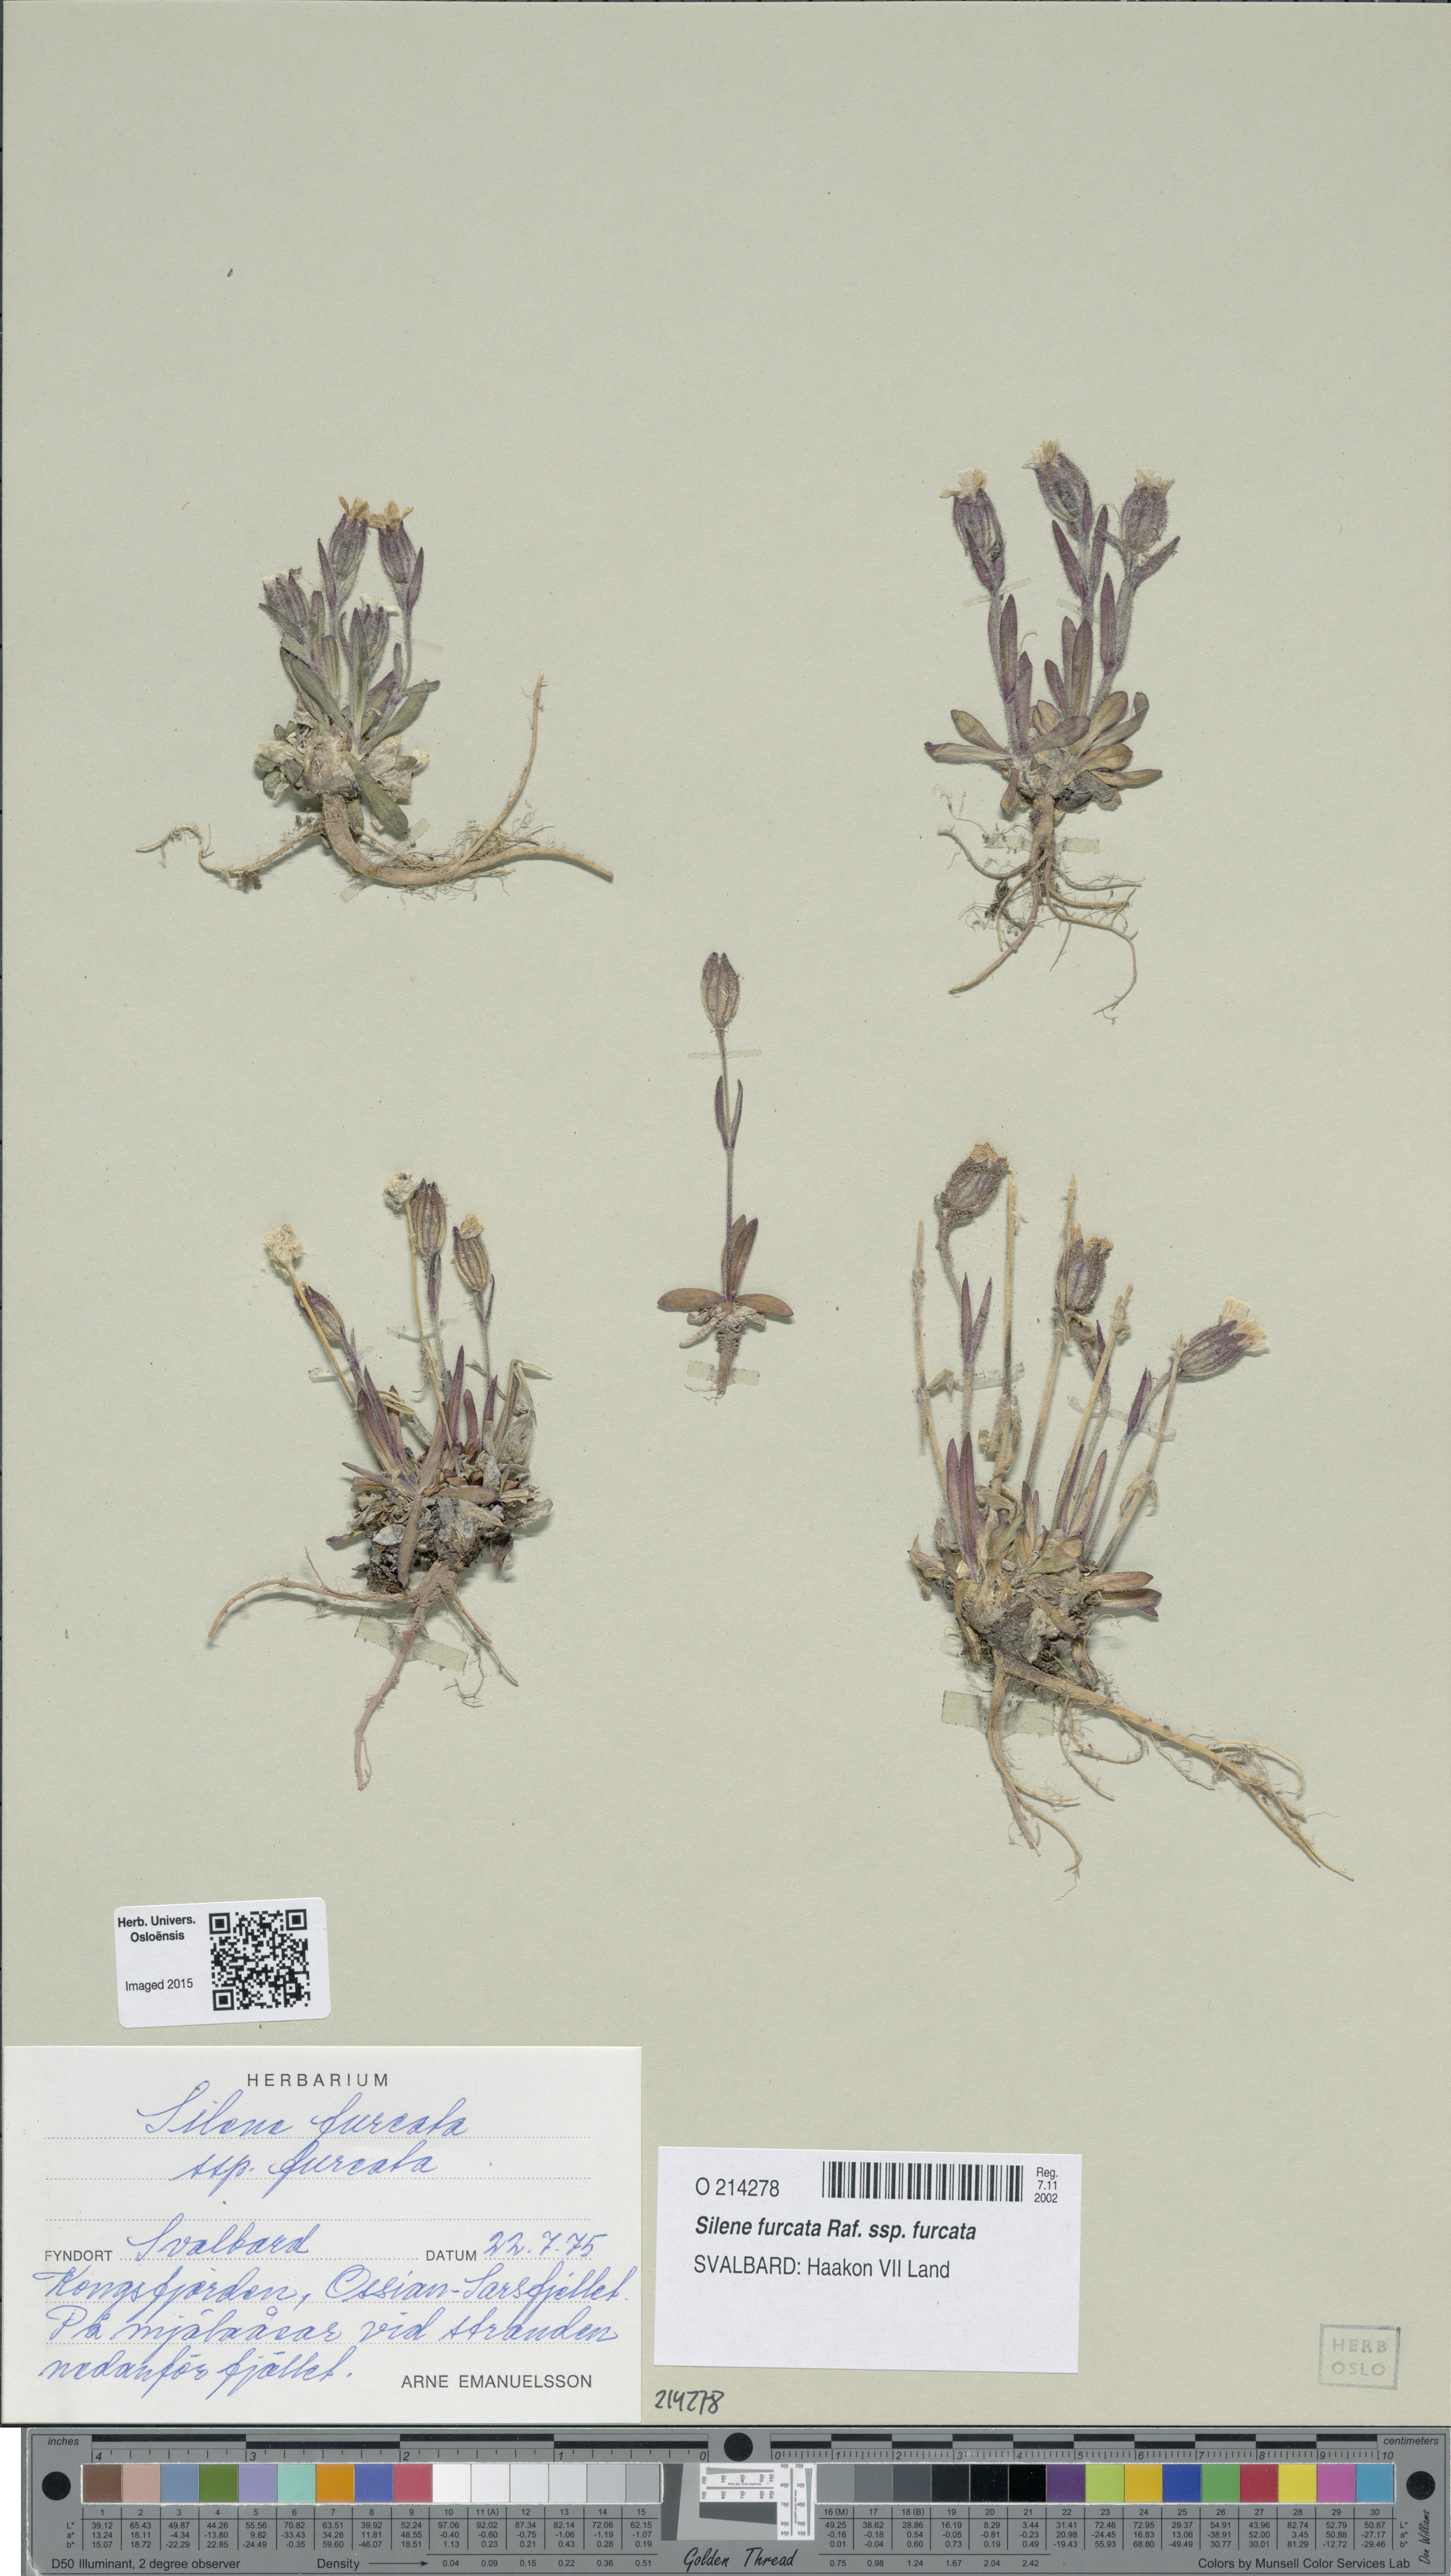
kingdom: Plantae
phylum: Tracheophyta
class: Magnoliopsida
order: Caryophyllales
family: Caryophyllaceae
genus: Silene
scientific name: Silene involucrata
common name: Greater arctic campion
